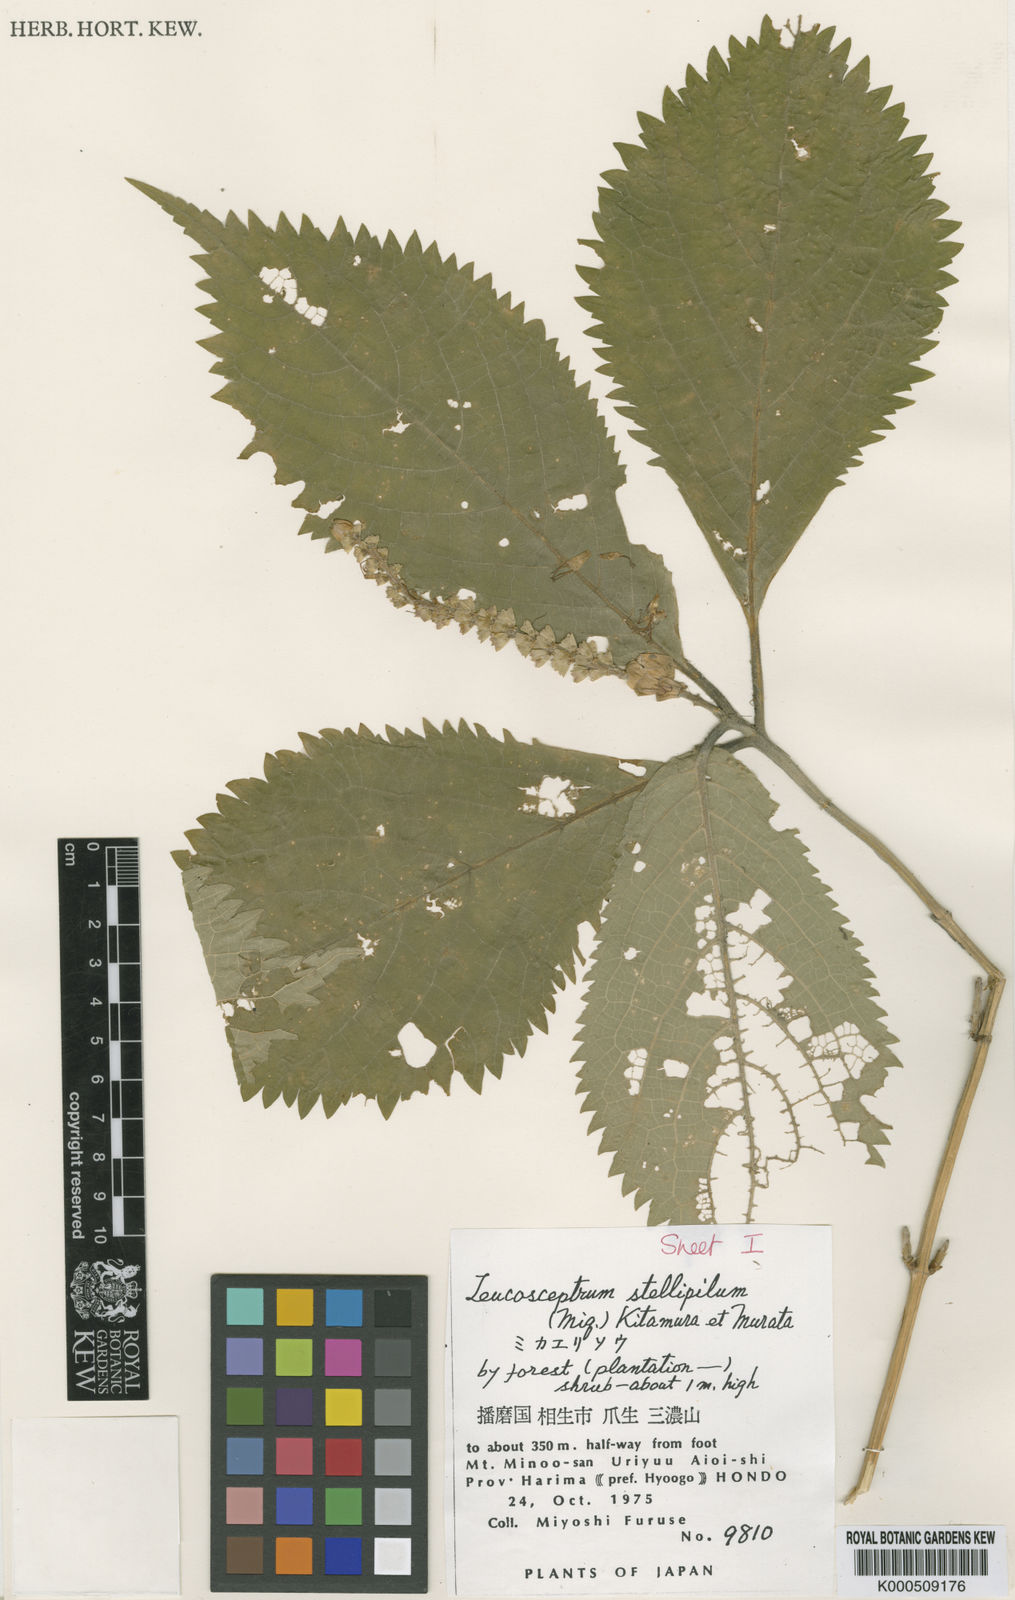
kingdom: Plantae
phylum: Tracheophyta
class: Magnoliopsida
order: Lamiales
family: Lamiaceae
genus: Comanthosphace
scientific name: Comanthosphace stellipila
